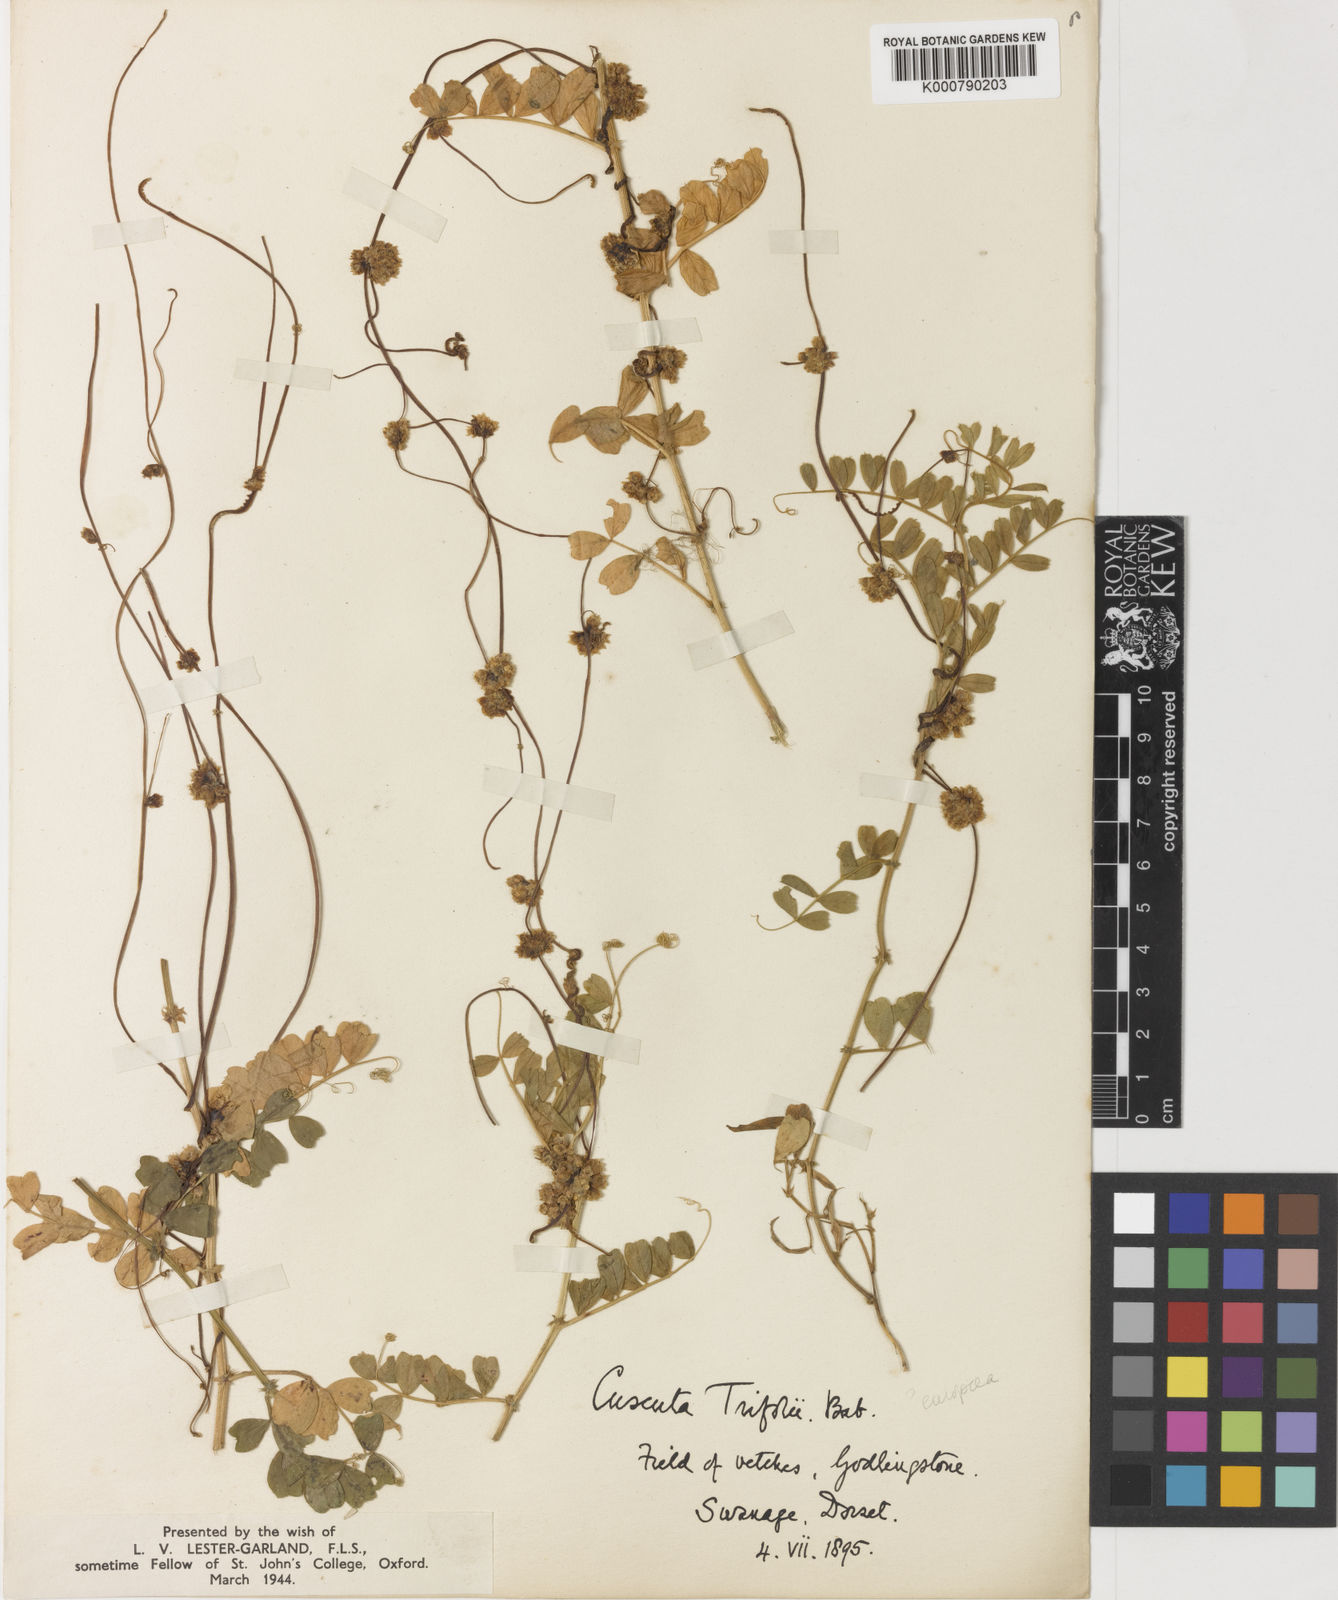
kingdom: Plantae
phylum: Tracheophyta
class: Magnoliopsida
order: Solanales
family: Convolvulaceae
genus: Cuscuta
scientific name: Cuscuta epithymum
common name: Clover dodder
